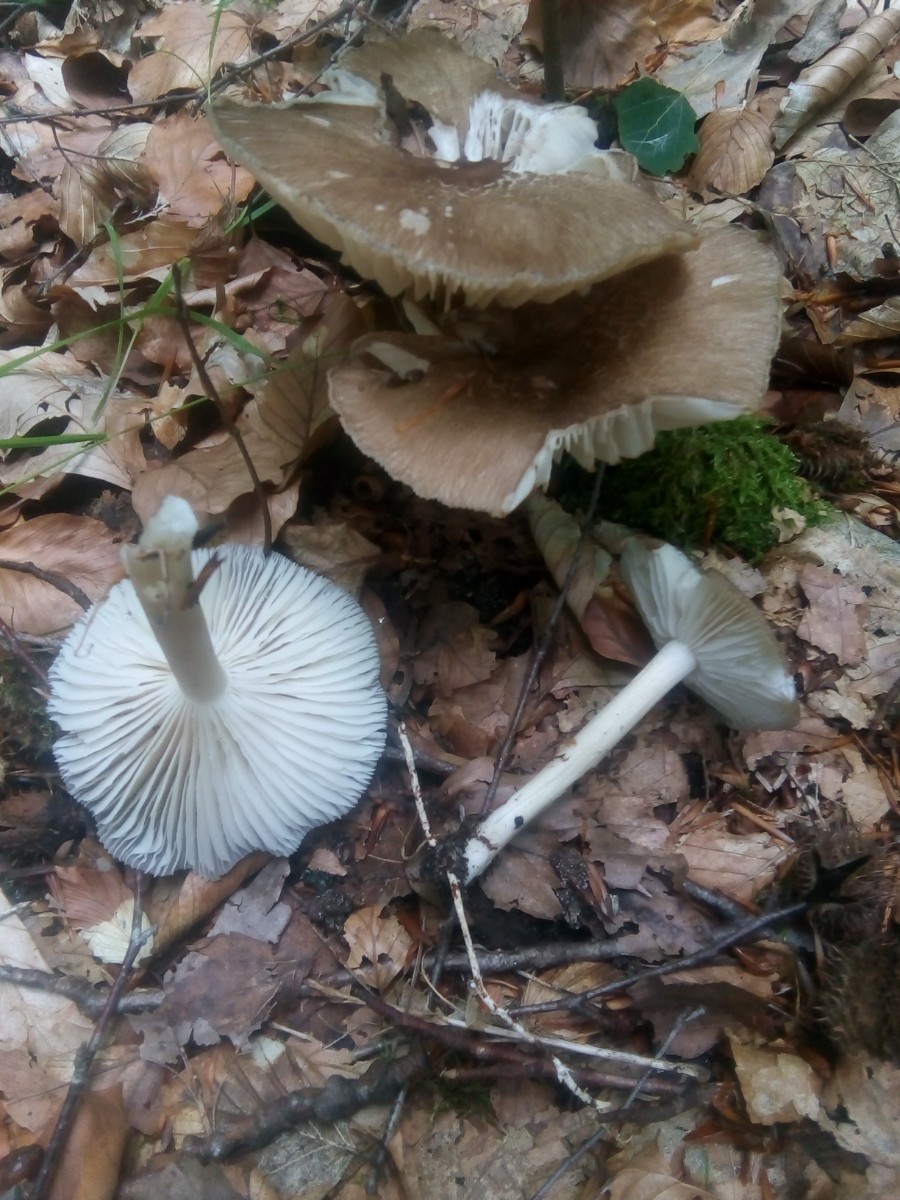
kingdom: Fungi
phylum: Basidiomycota
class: Agaricomycetes
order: Agaricales
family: Tricholomataceae
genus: Megacollybia
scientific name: Megacollybia platyphylla
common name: bredbladet væbnerhat
